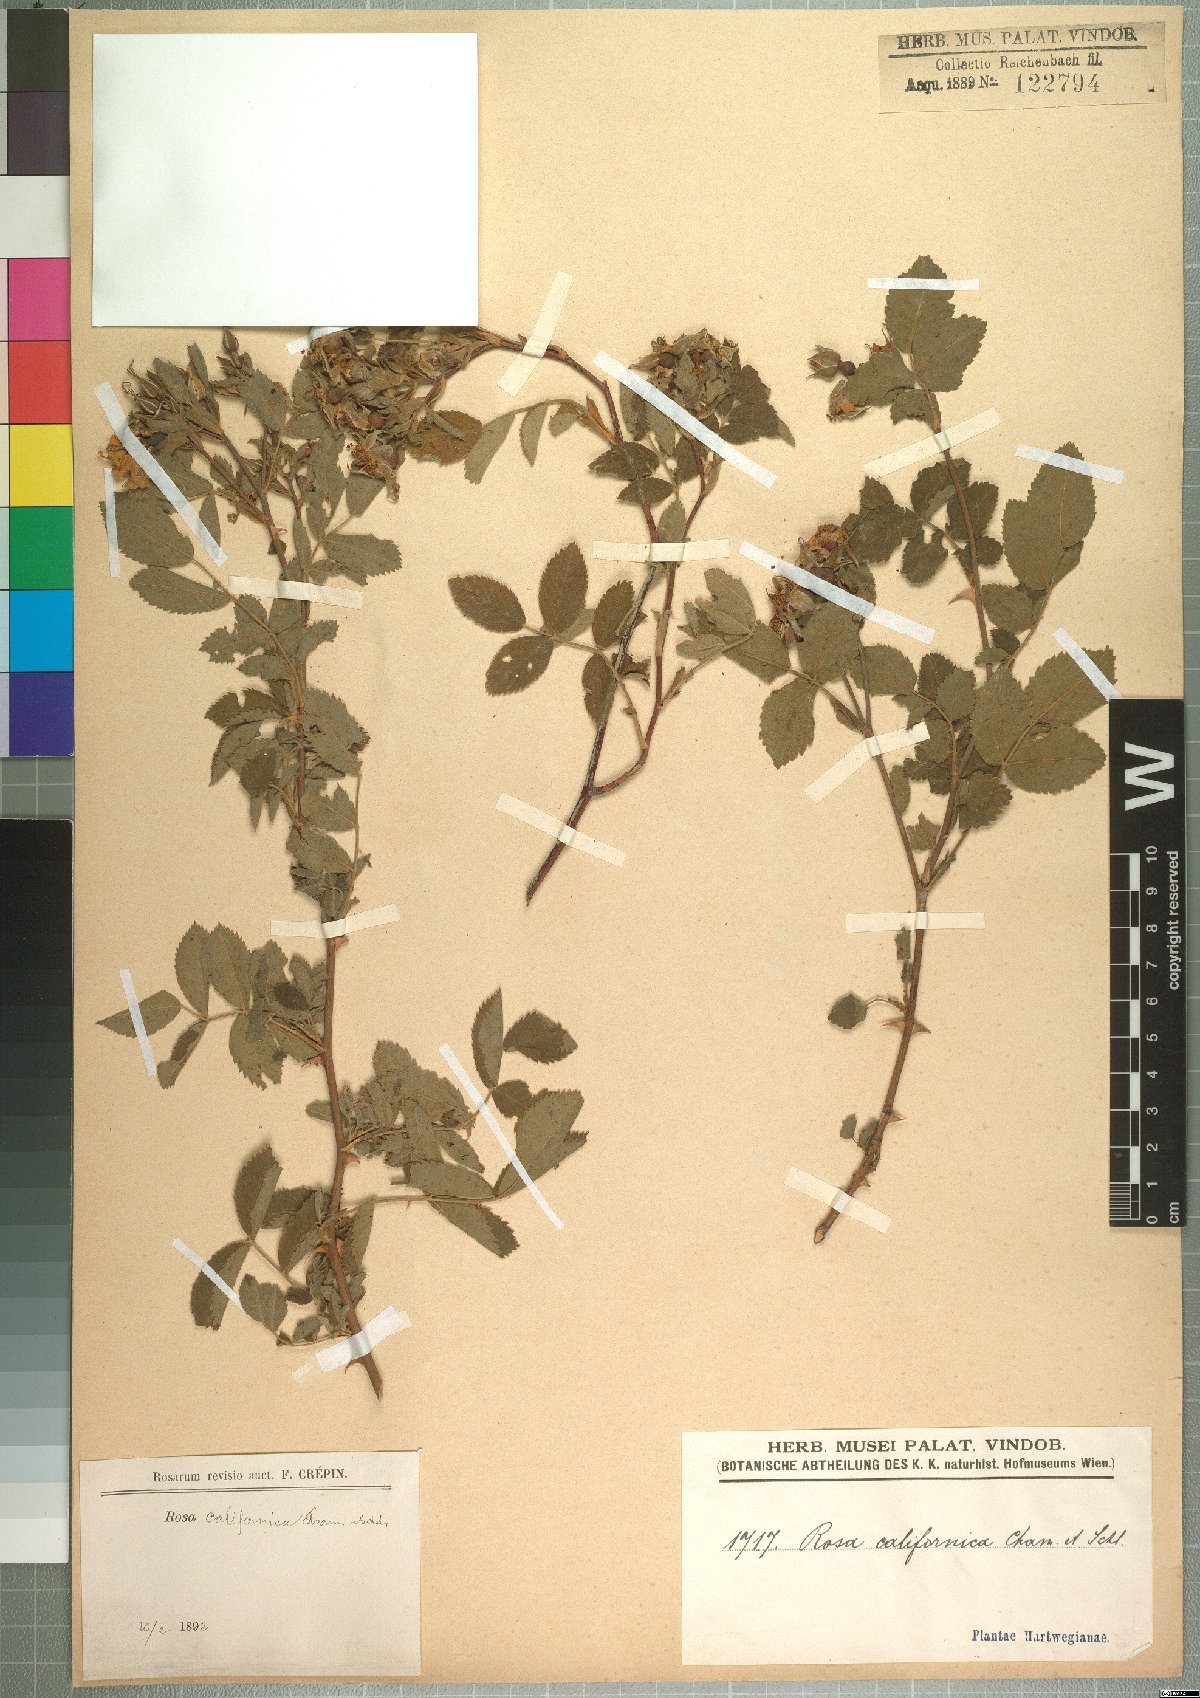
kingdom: Plantae
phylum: Tracheophyta
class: Magnoliopsida
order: Rosales
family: Rosaceae
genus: Rosa
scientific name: Rosa californica
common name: California rose
